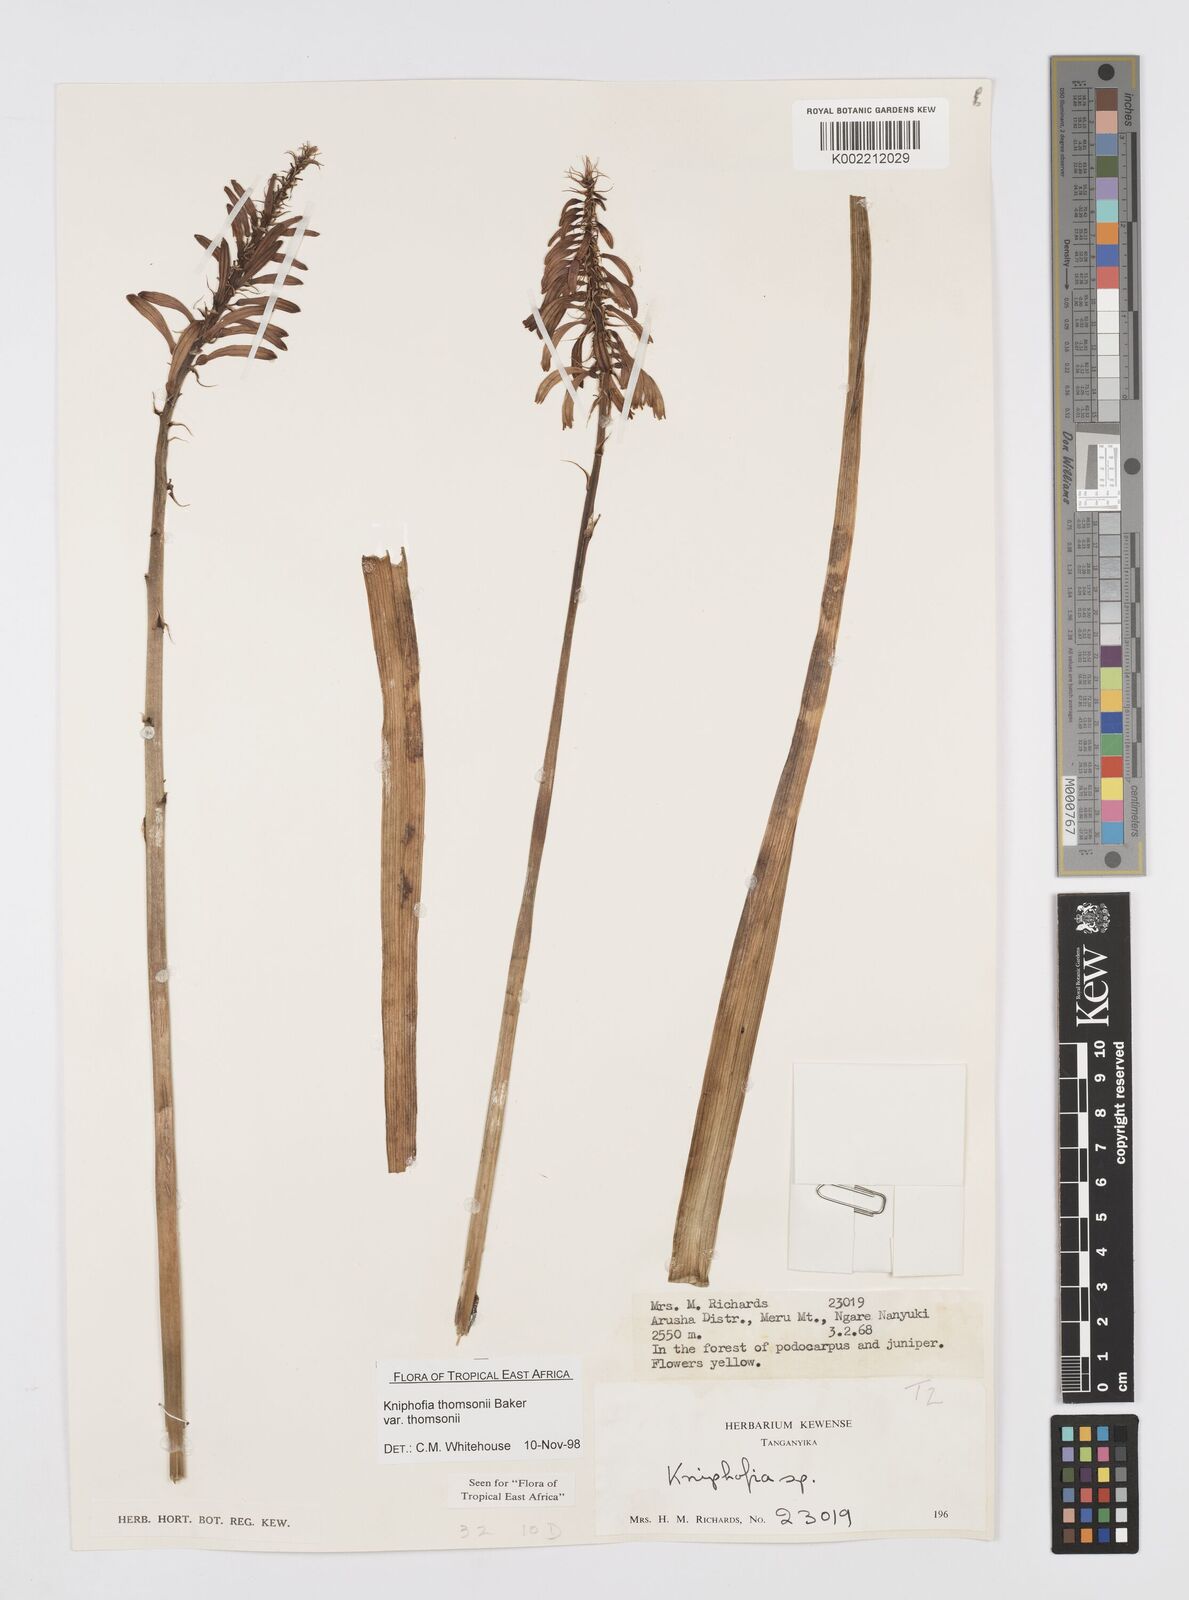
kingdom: Plantae
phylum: Tracheophyta
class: Liliopsida
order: Asparagales
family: Asphodelaceae
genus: Kniphofia
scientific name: Kniphofia thomsonii
